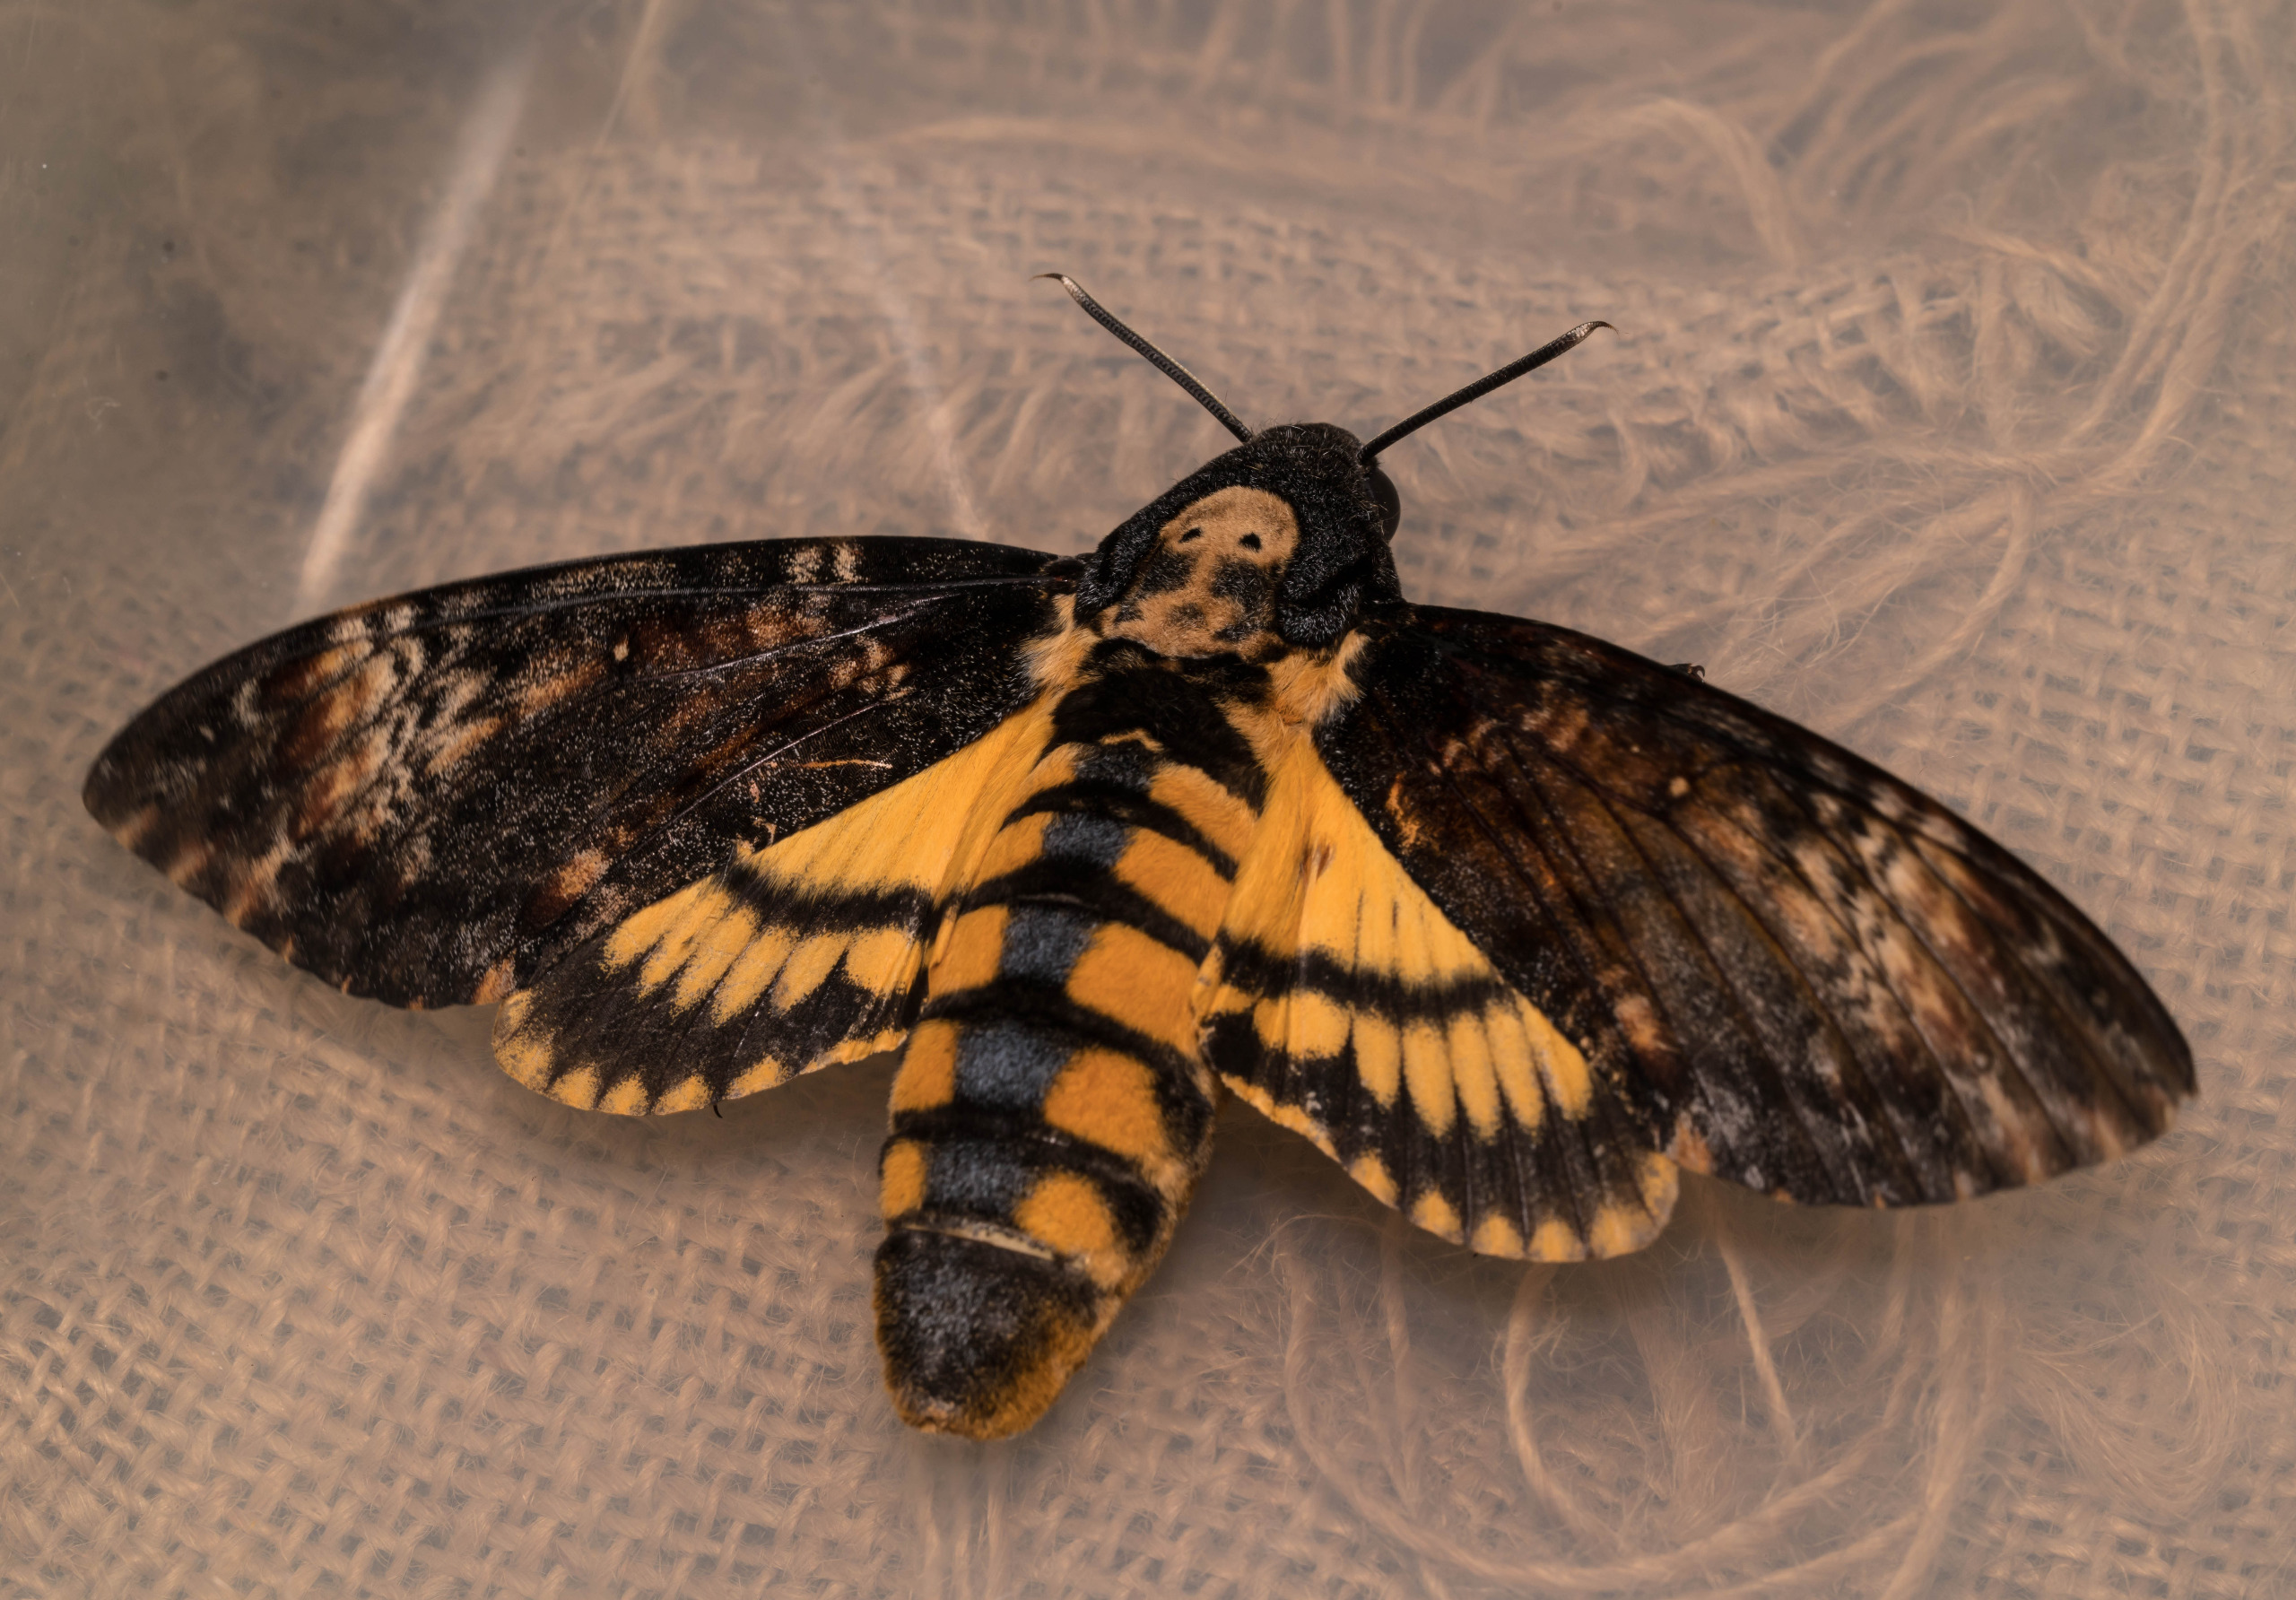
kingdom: Animalia
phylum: Arthropoda
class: Insecta
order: Lepidoptera
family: Sphingidae
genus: Acherontia
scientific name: Acherontia atropos
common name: Dødningehoved
